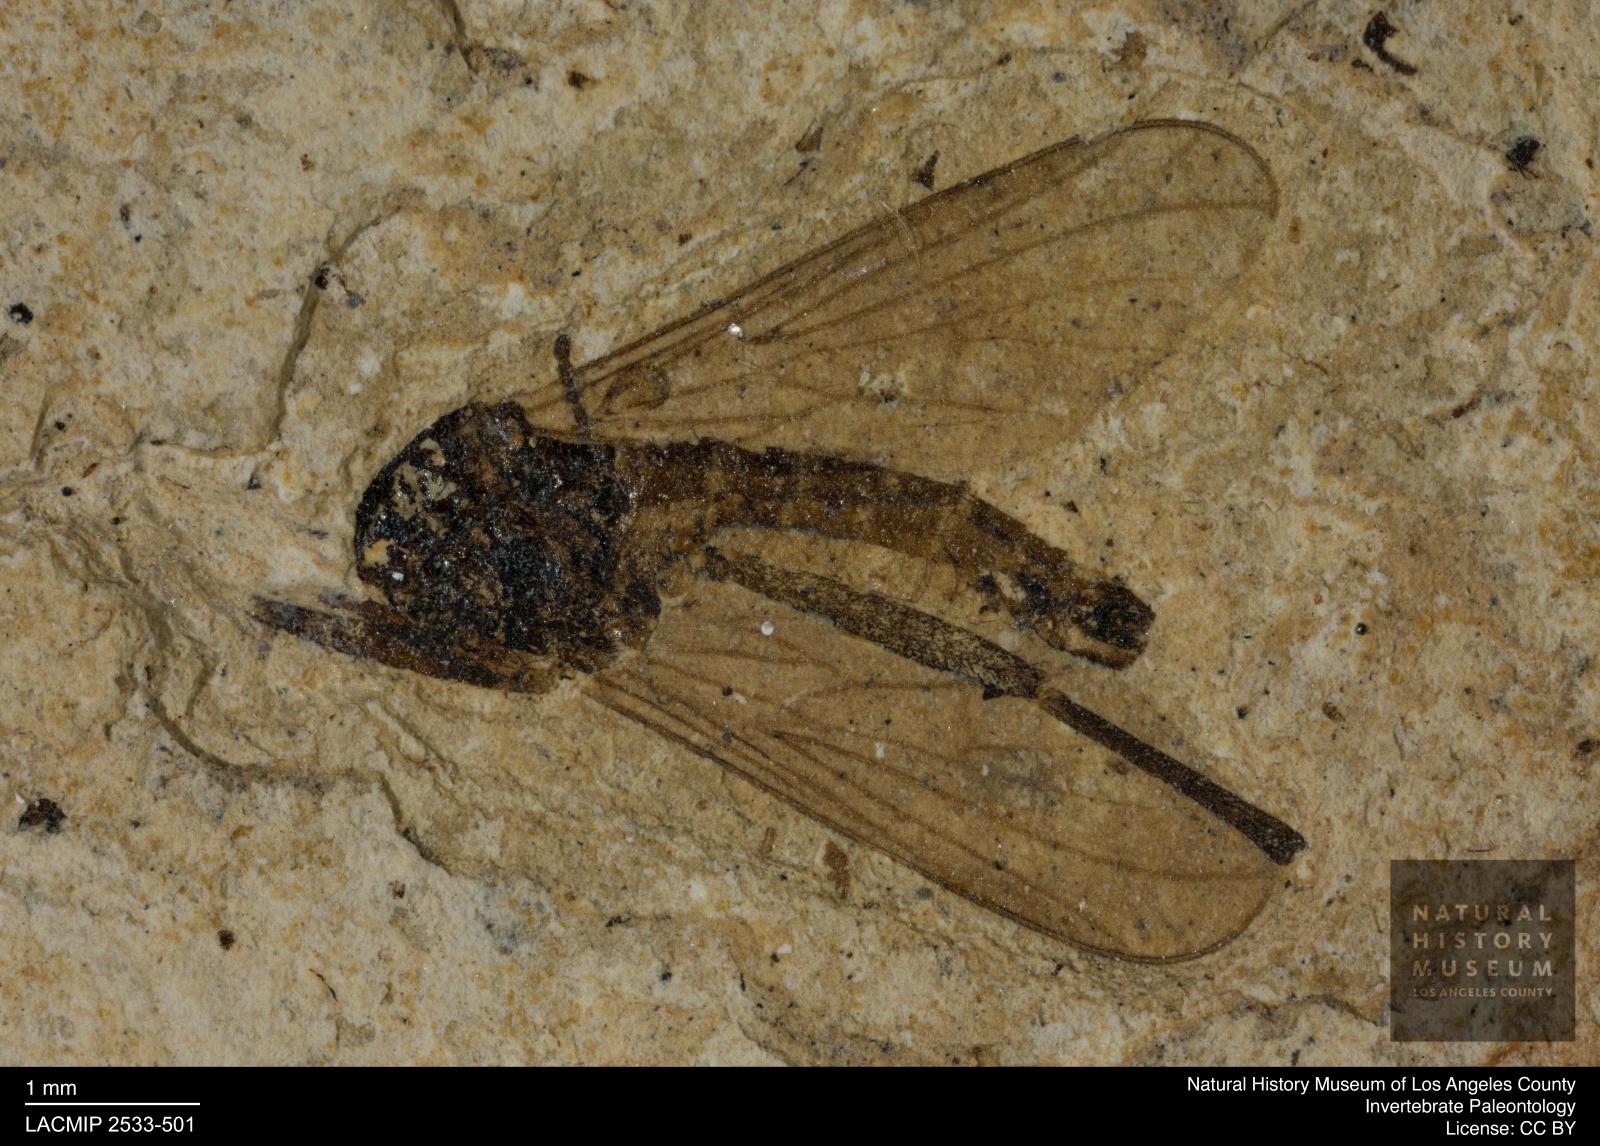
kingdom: Animalia
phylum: Arthropoda
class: Insecta
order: Diptera
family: Empididae
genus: Empis
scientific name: Empis umbonata
